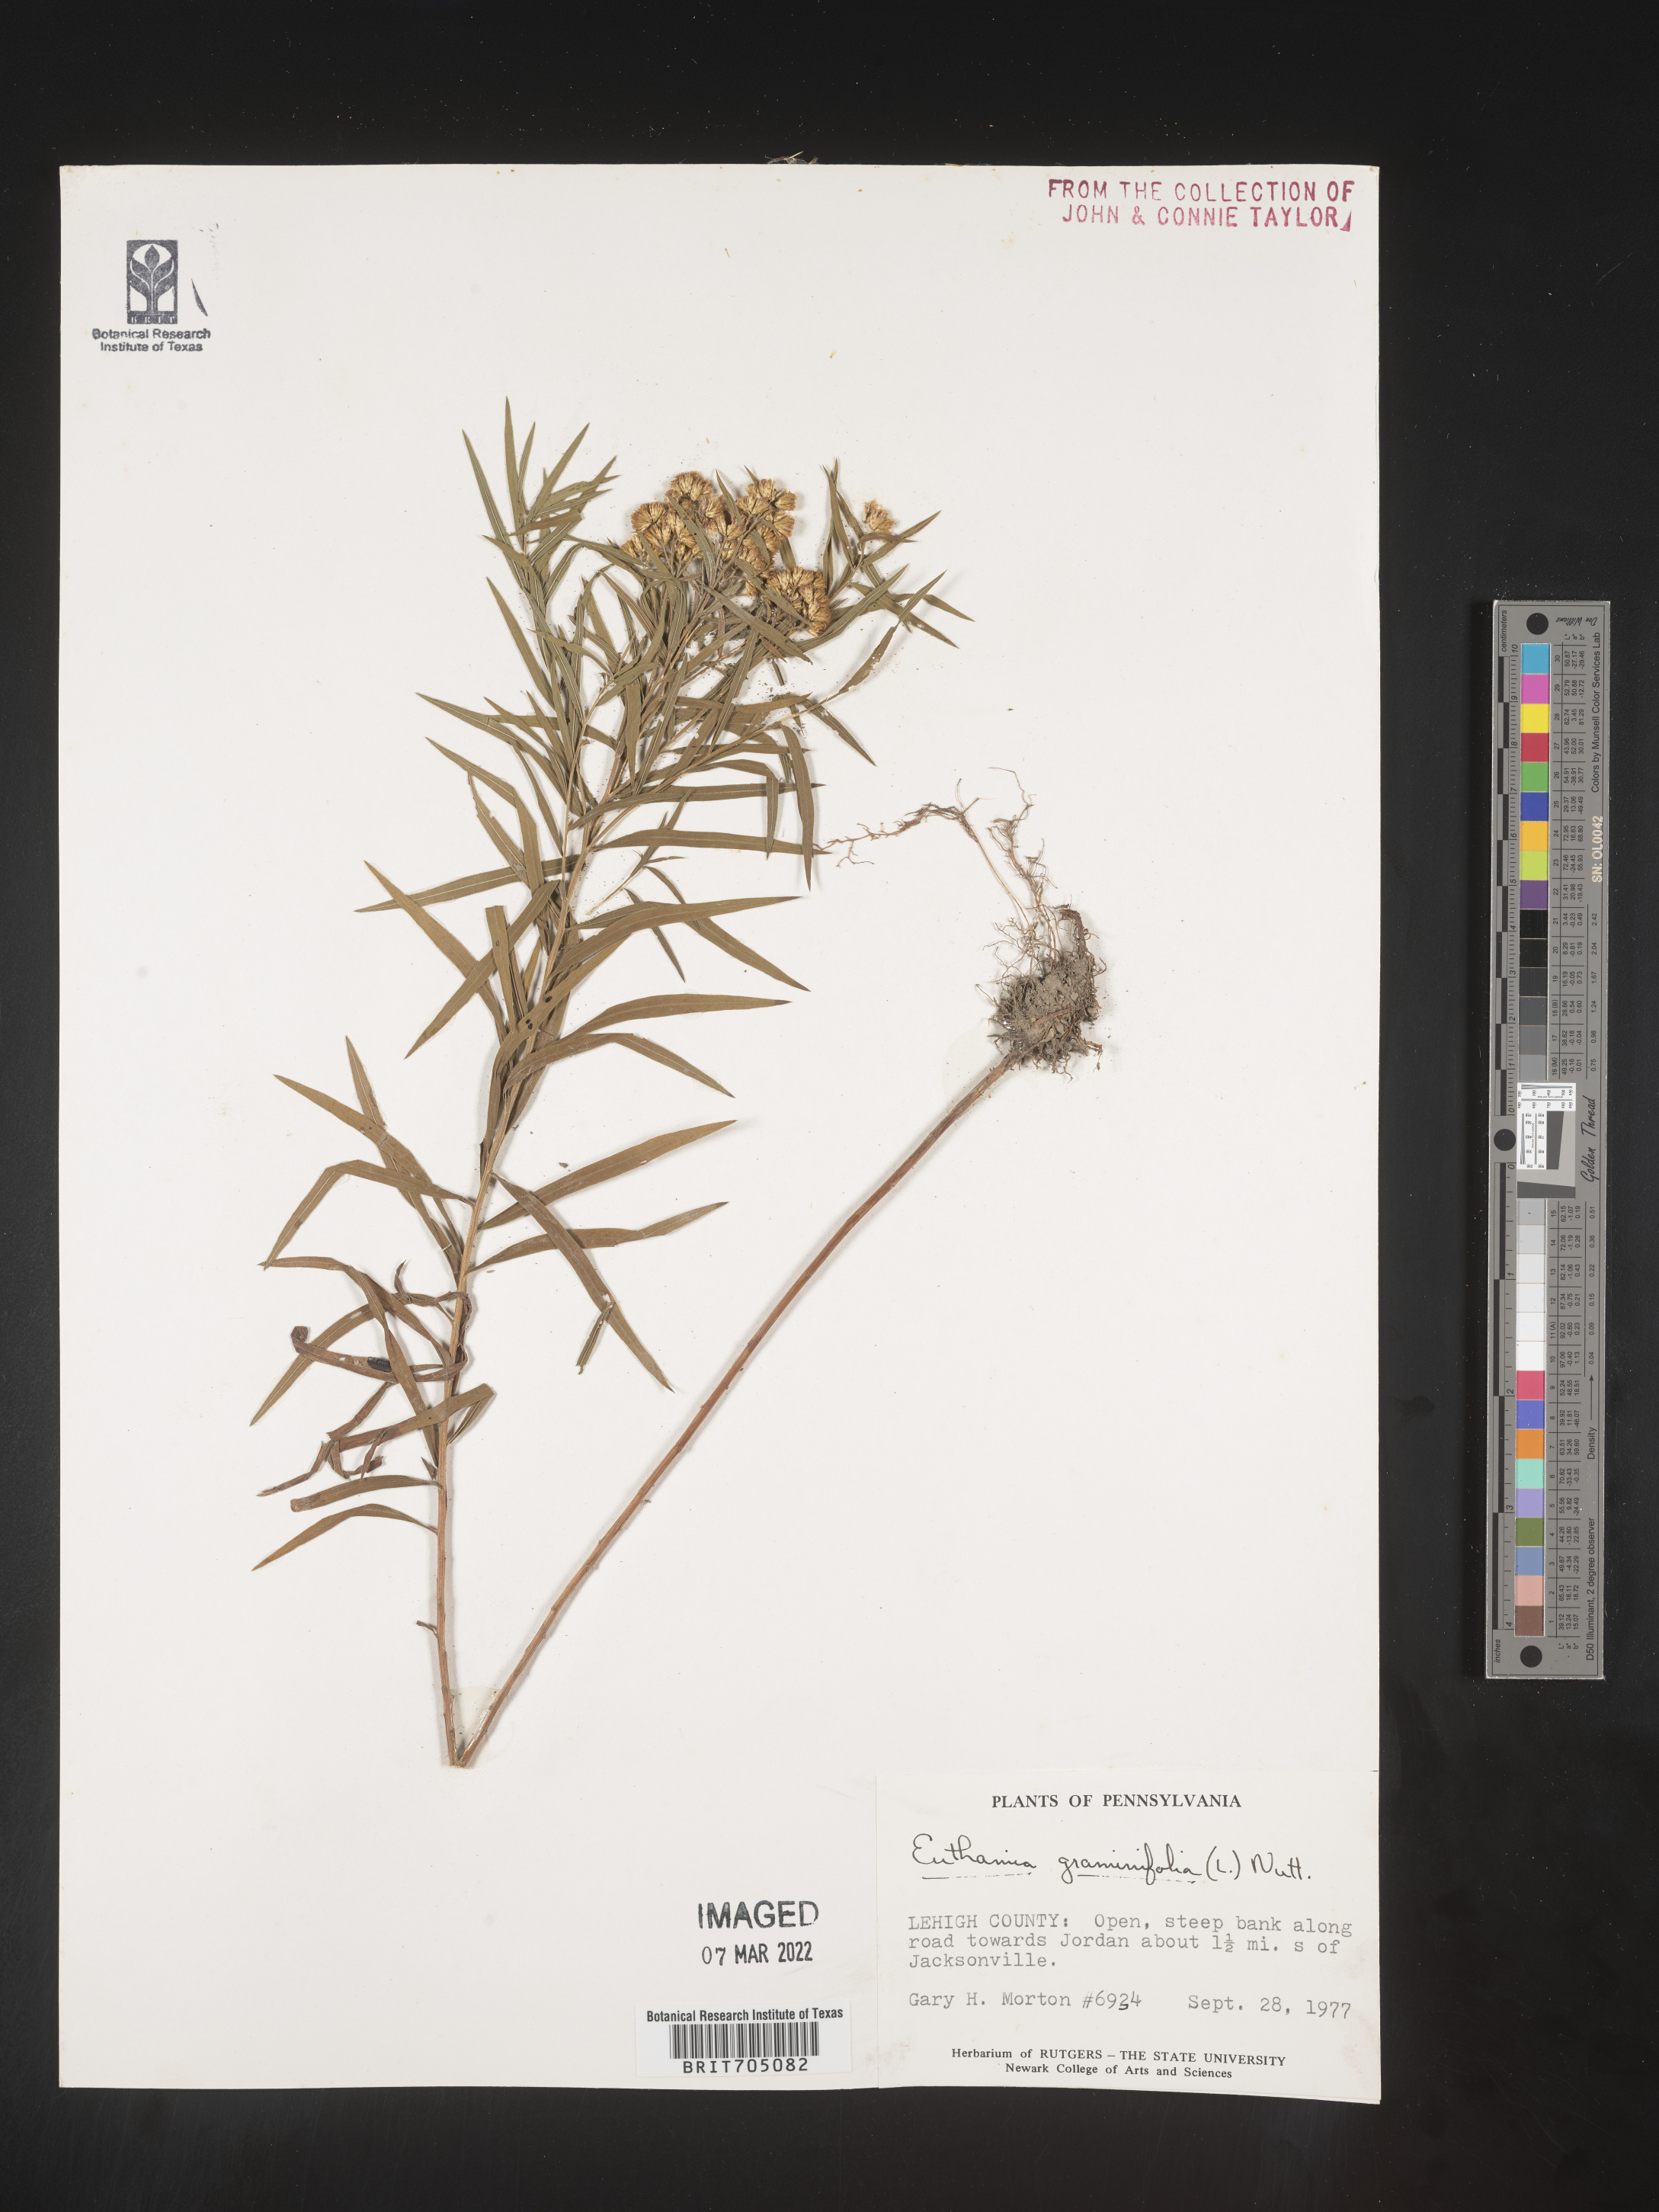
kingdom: Plantae
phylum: Tracheophyta
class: Magnoliopsida
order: Asterales
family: Asteraceae
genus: Euthamia
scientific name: Euthamia graminifolia
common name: Common goldentop
